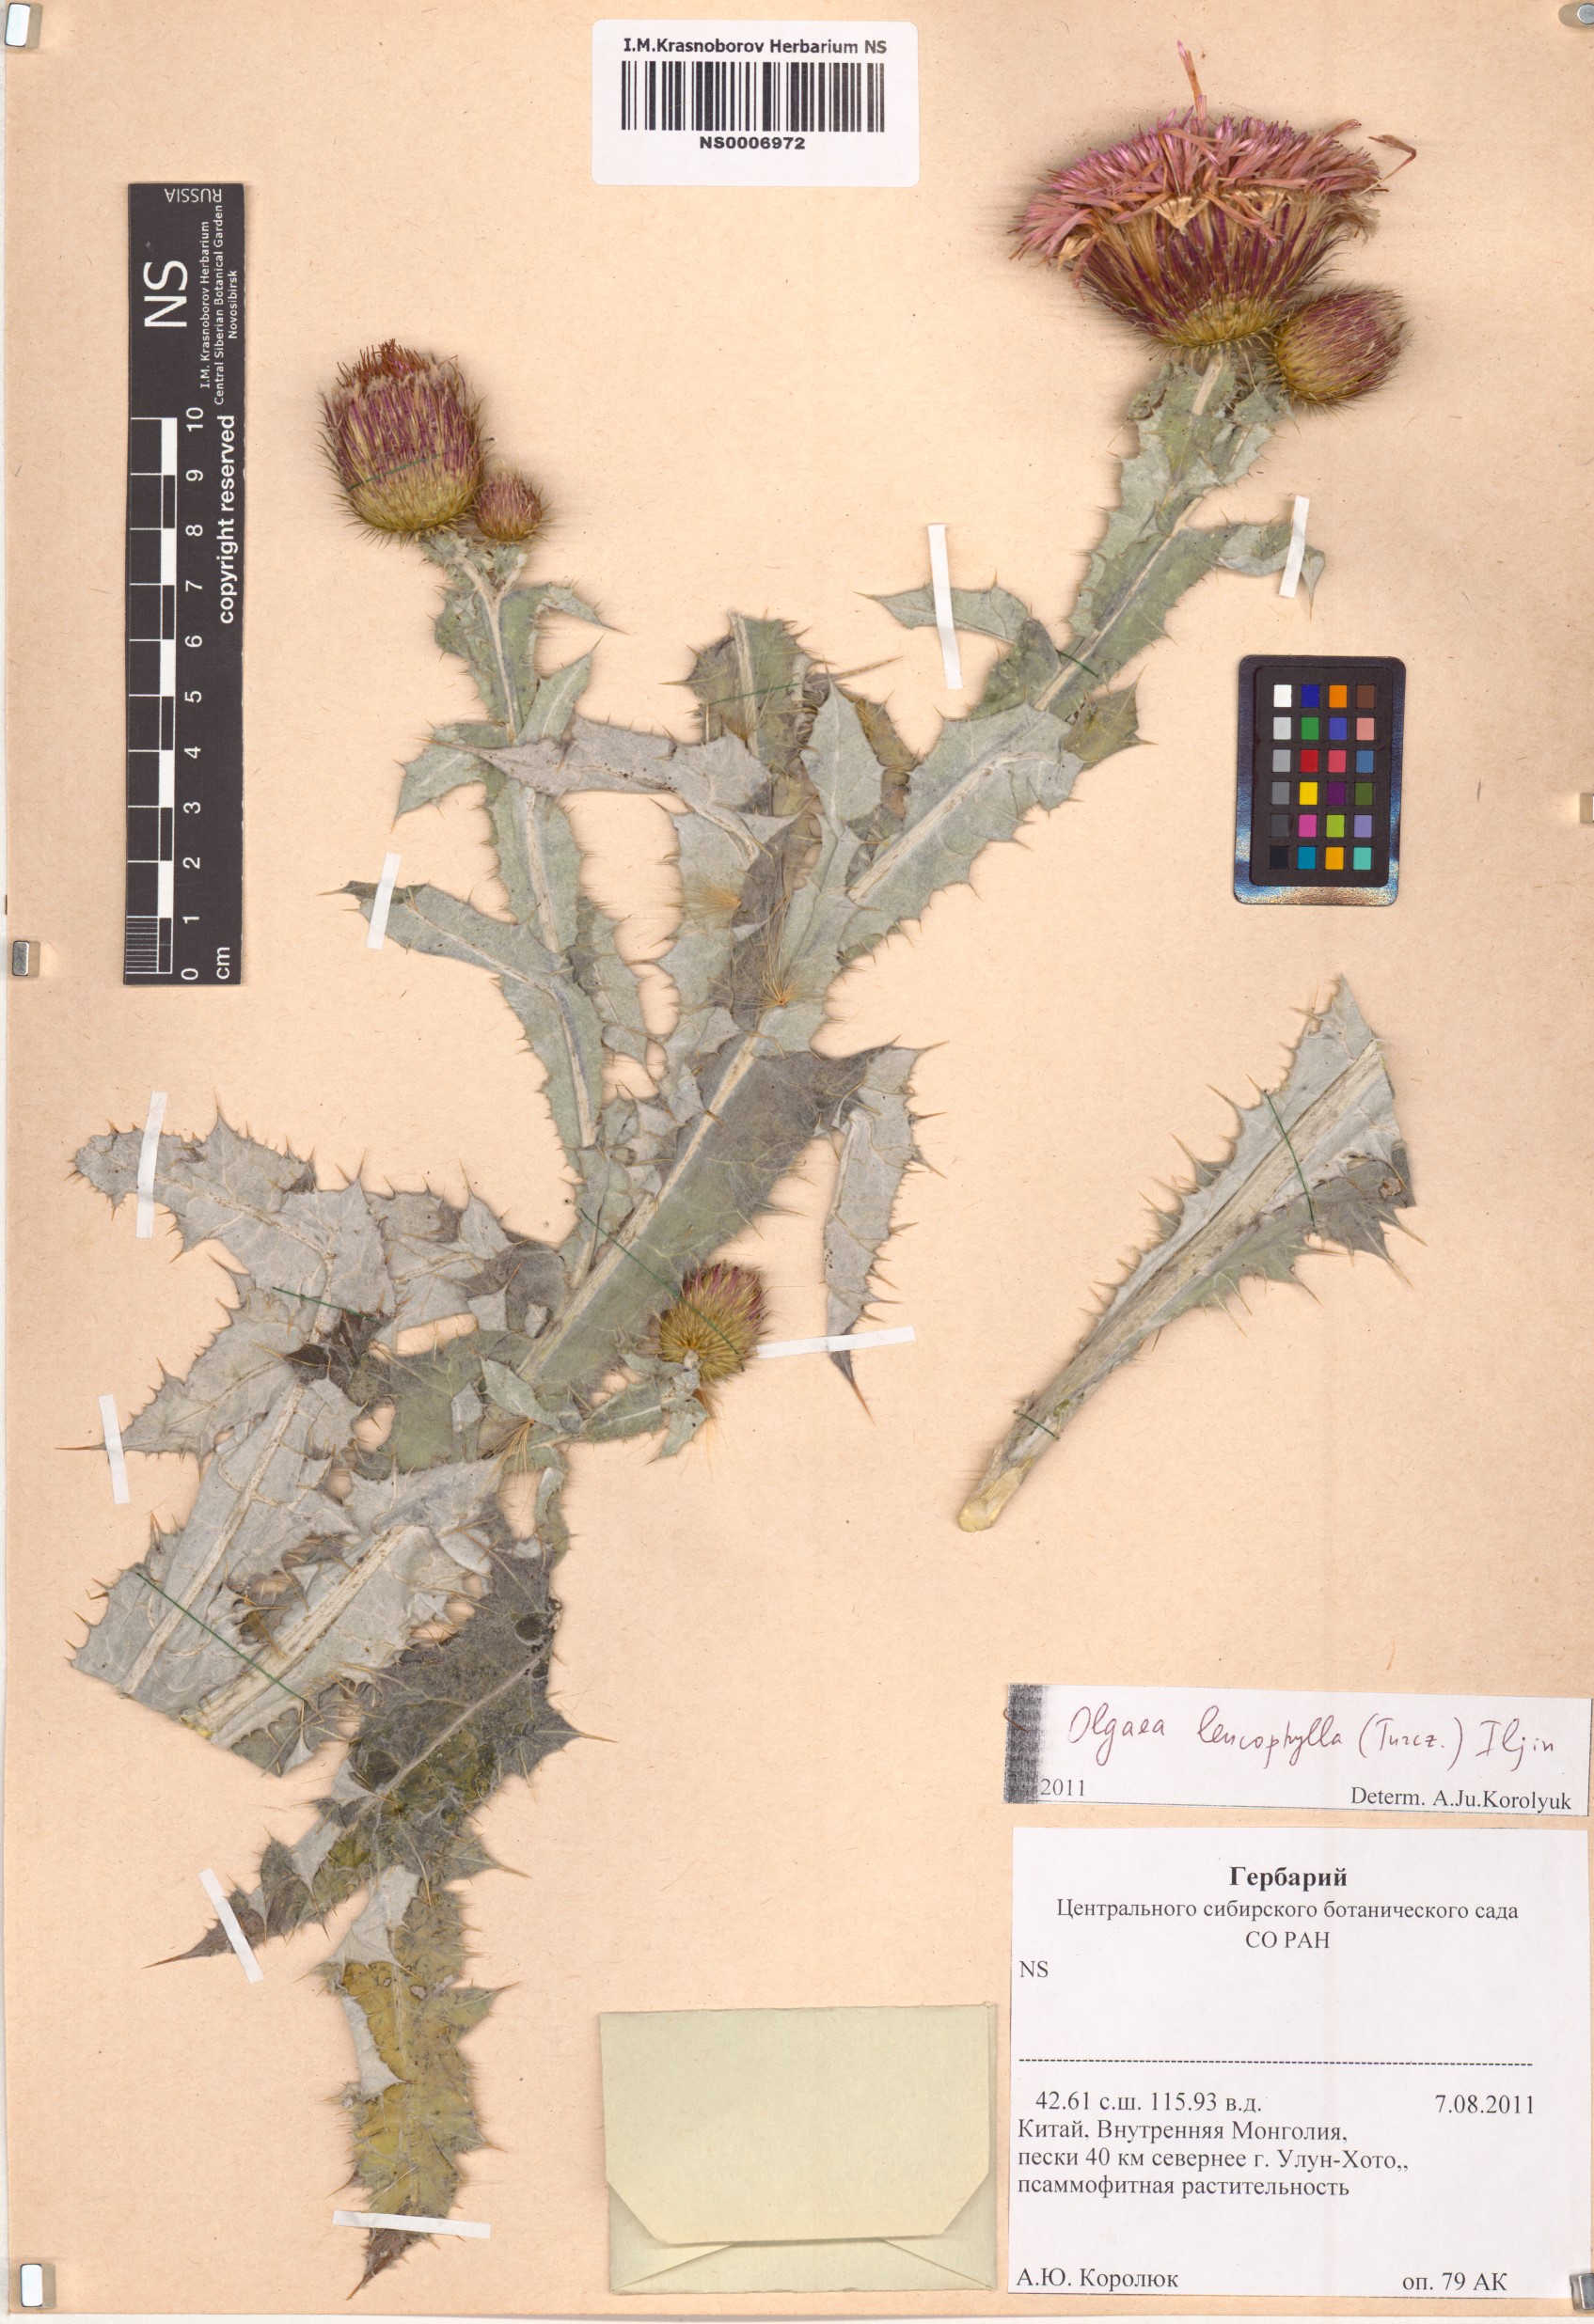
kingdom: Plantae
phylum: Tracheophyta
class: Magnoliopsida
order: Asterales
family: Asteraceae
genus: Olgaea
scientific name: Olgaea leucophylla
